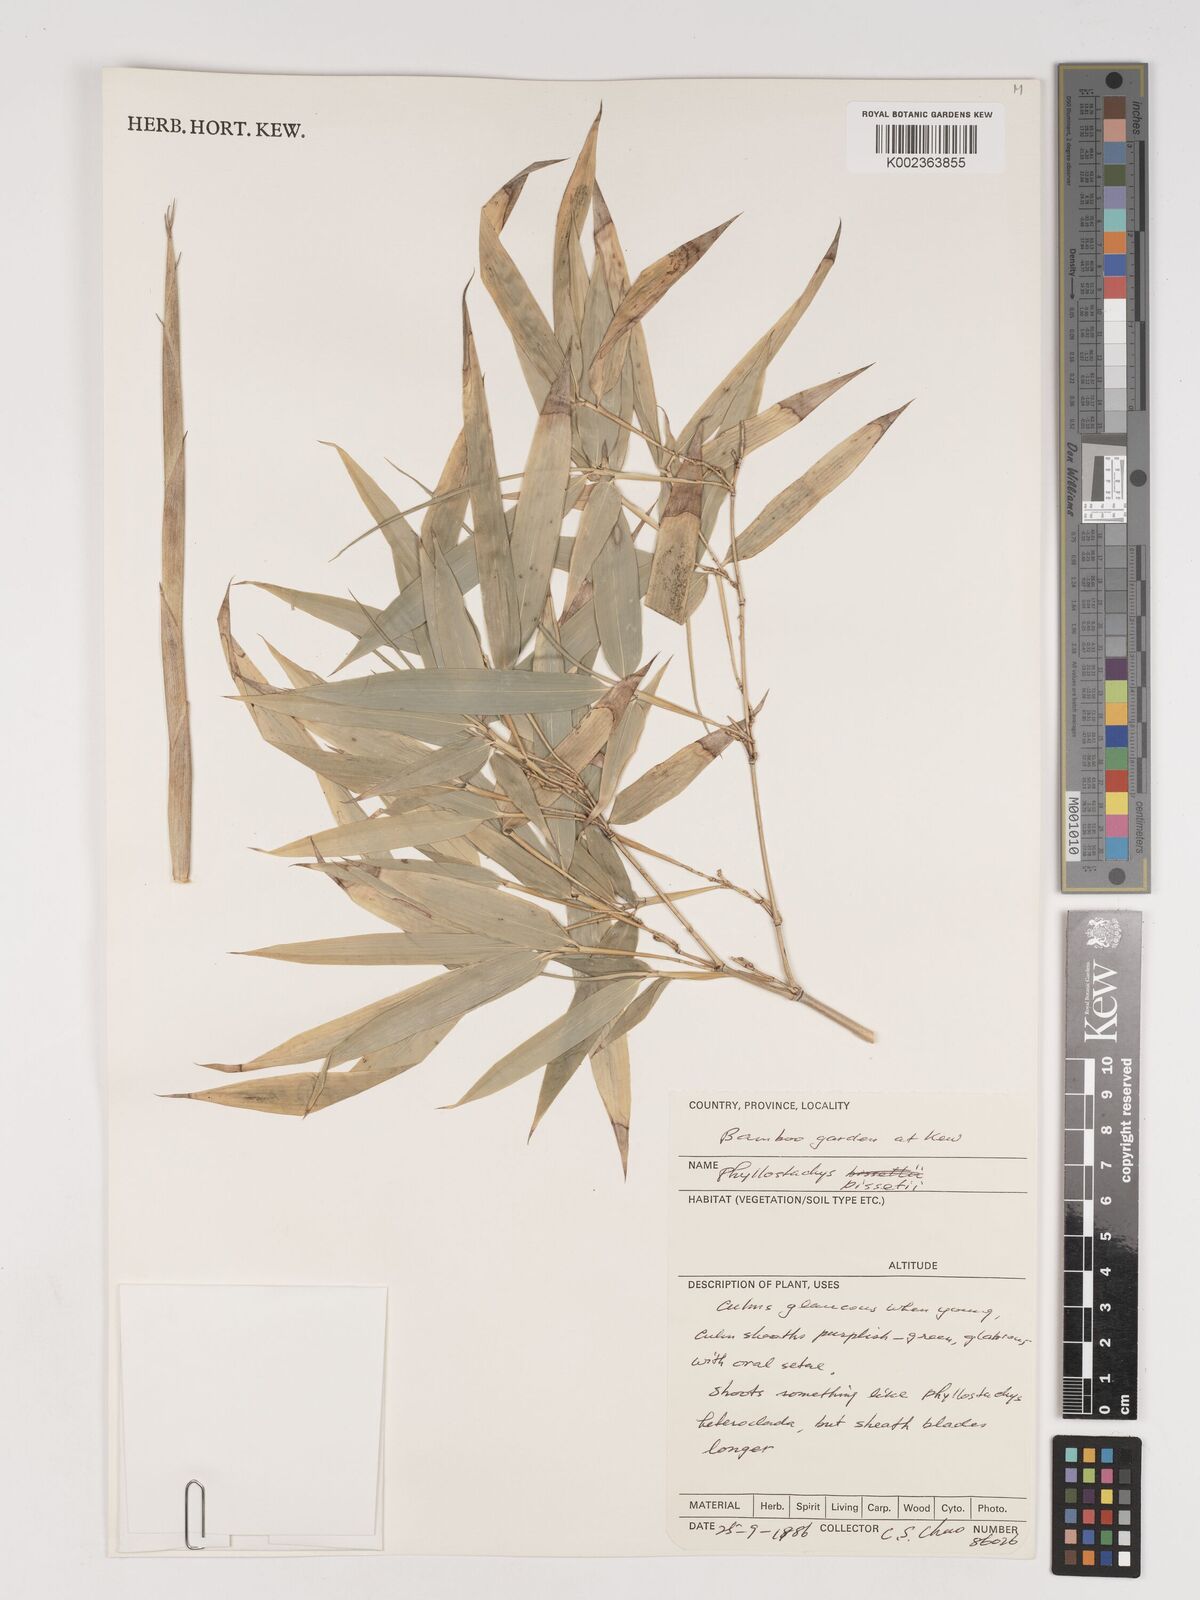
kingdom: Plantae
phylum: Tracheophyta
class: Liliopsida
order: Poales
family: Poaceae
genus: Phyllostachys
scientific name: Phyllostachys bissetii
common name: Bamboo
